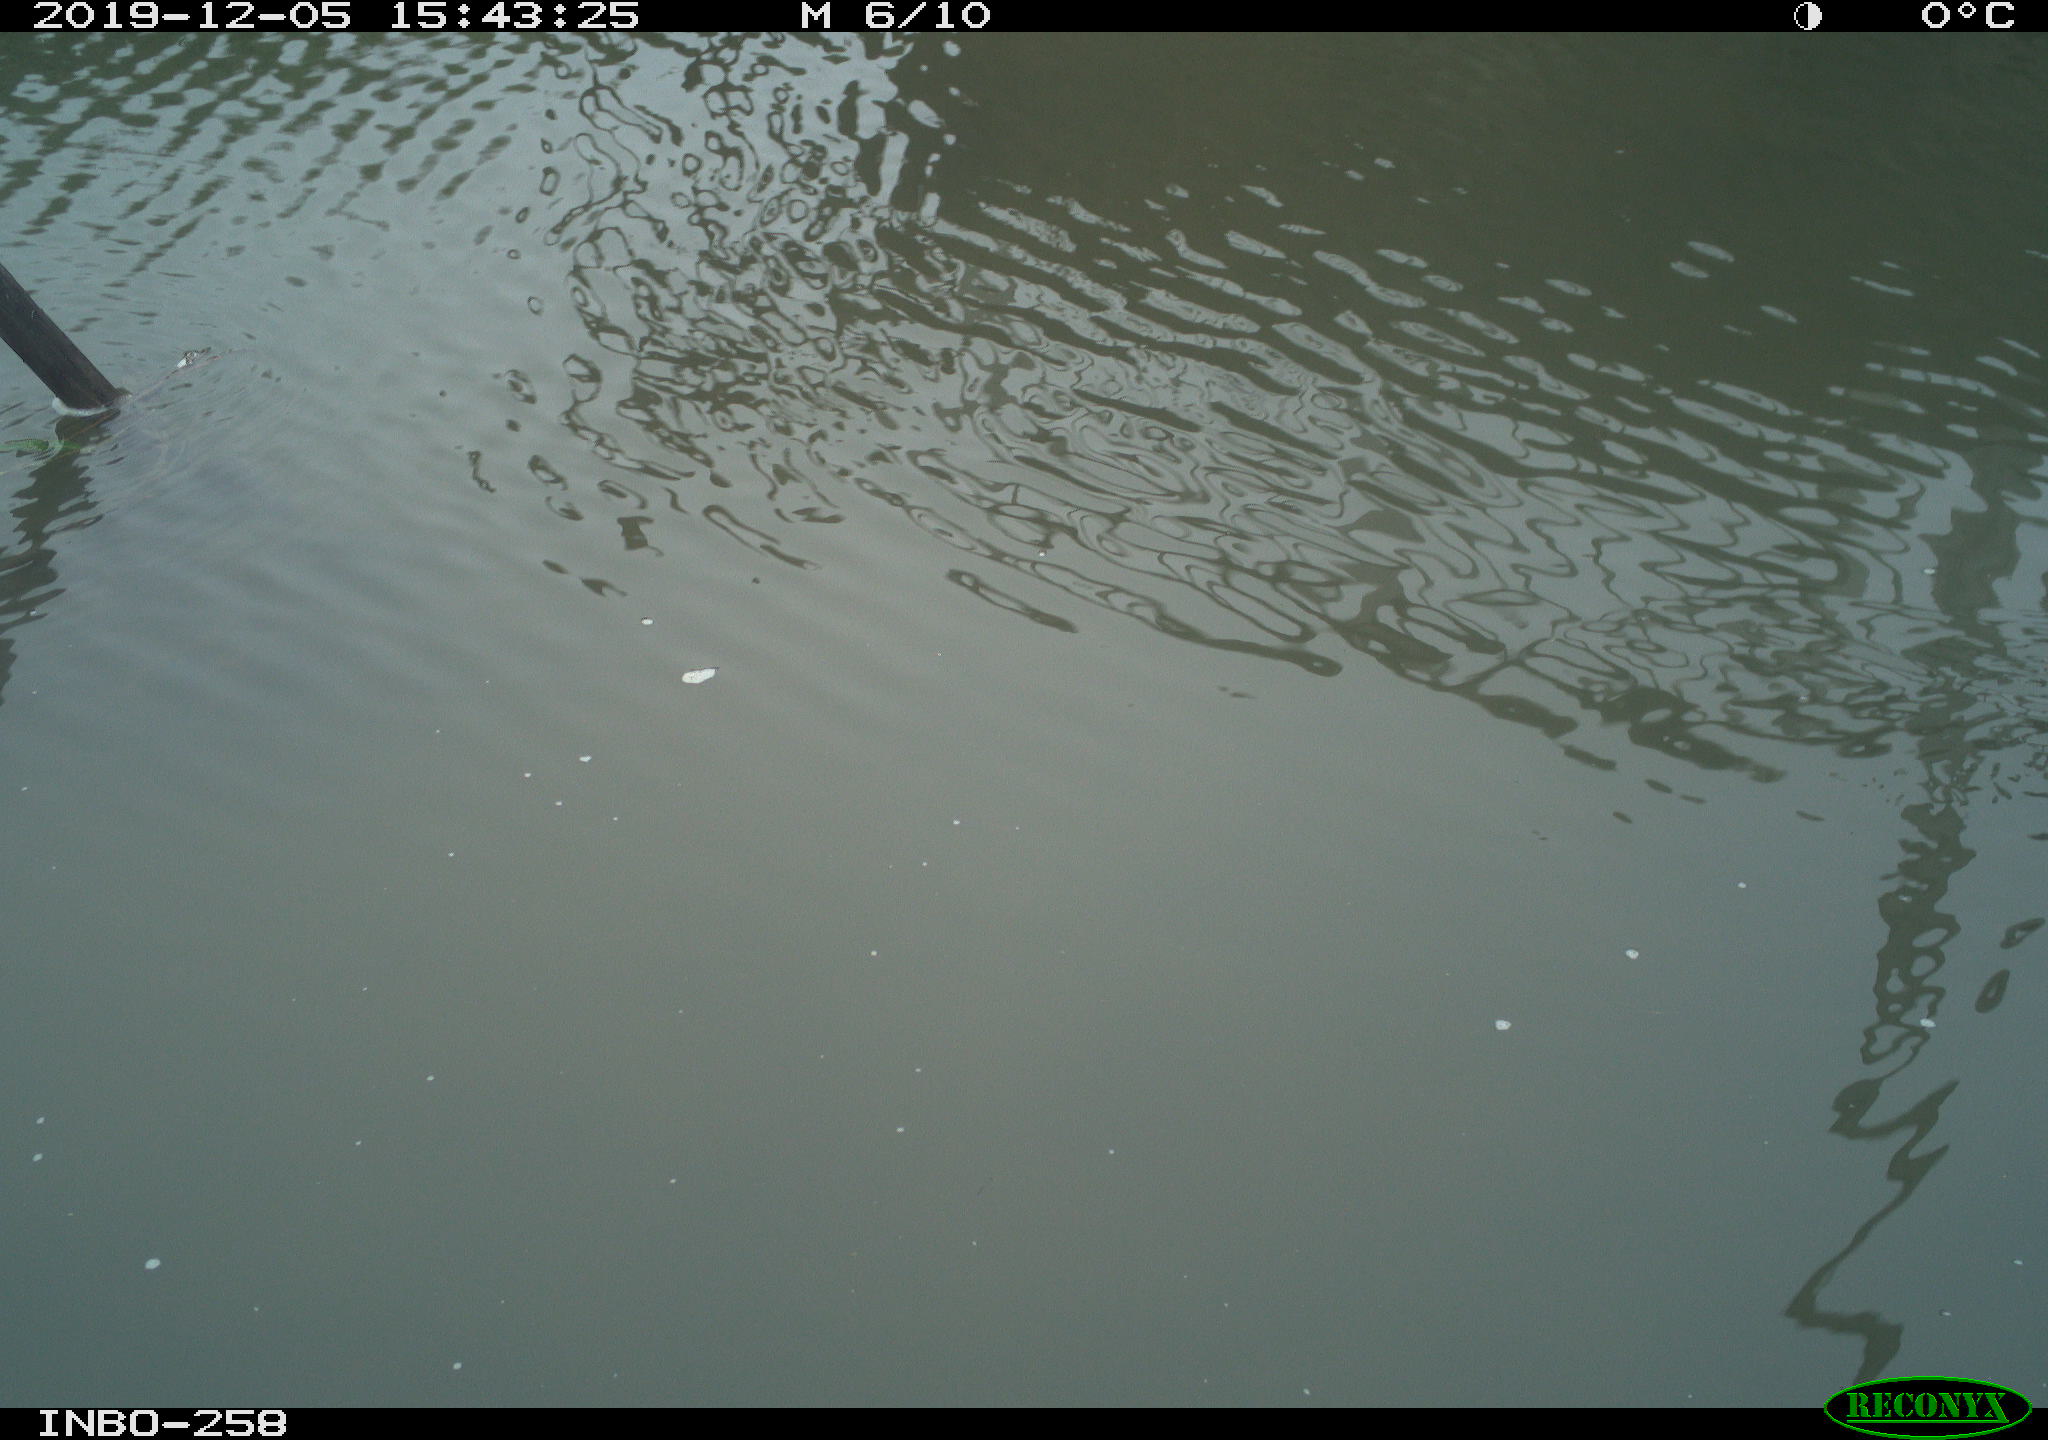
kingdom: Animalia
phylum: Chordata
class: Aves
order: Gruiformes
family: Rallidae
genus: Gallinula
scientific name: Gallinula chloropus
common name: Common moorhen
